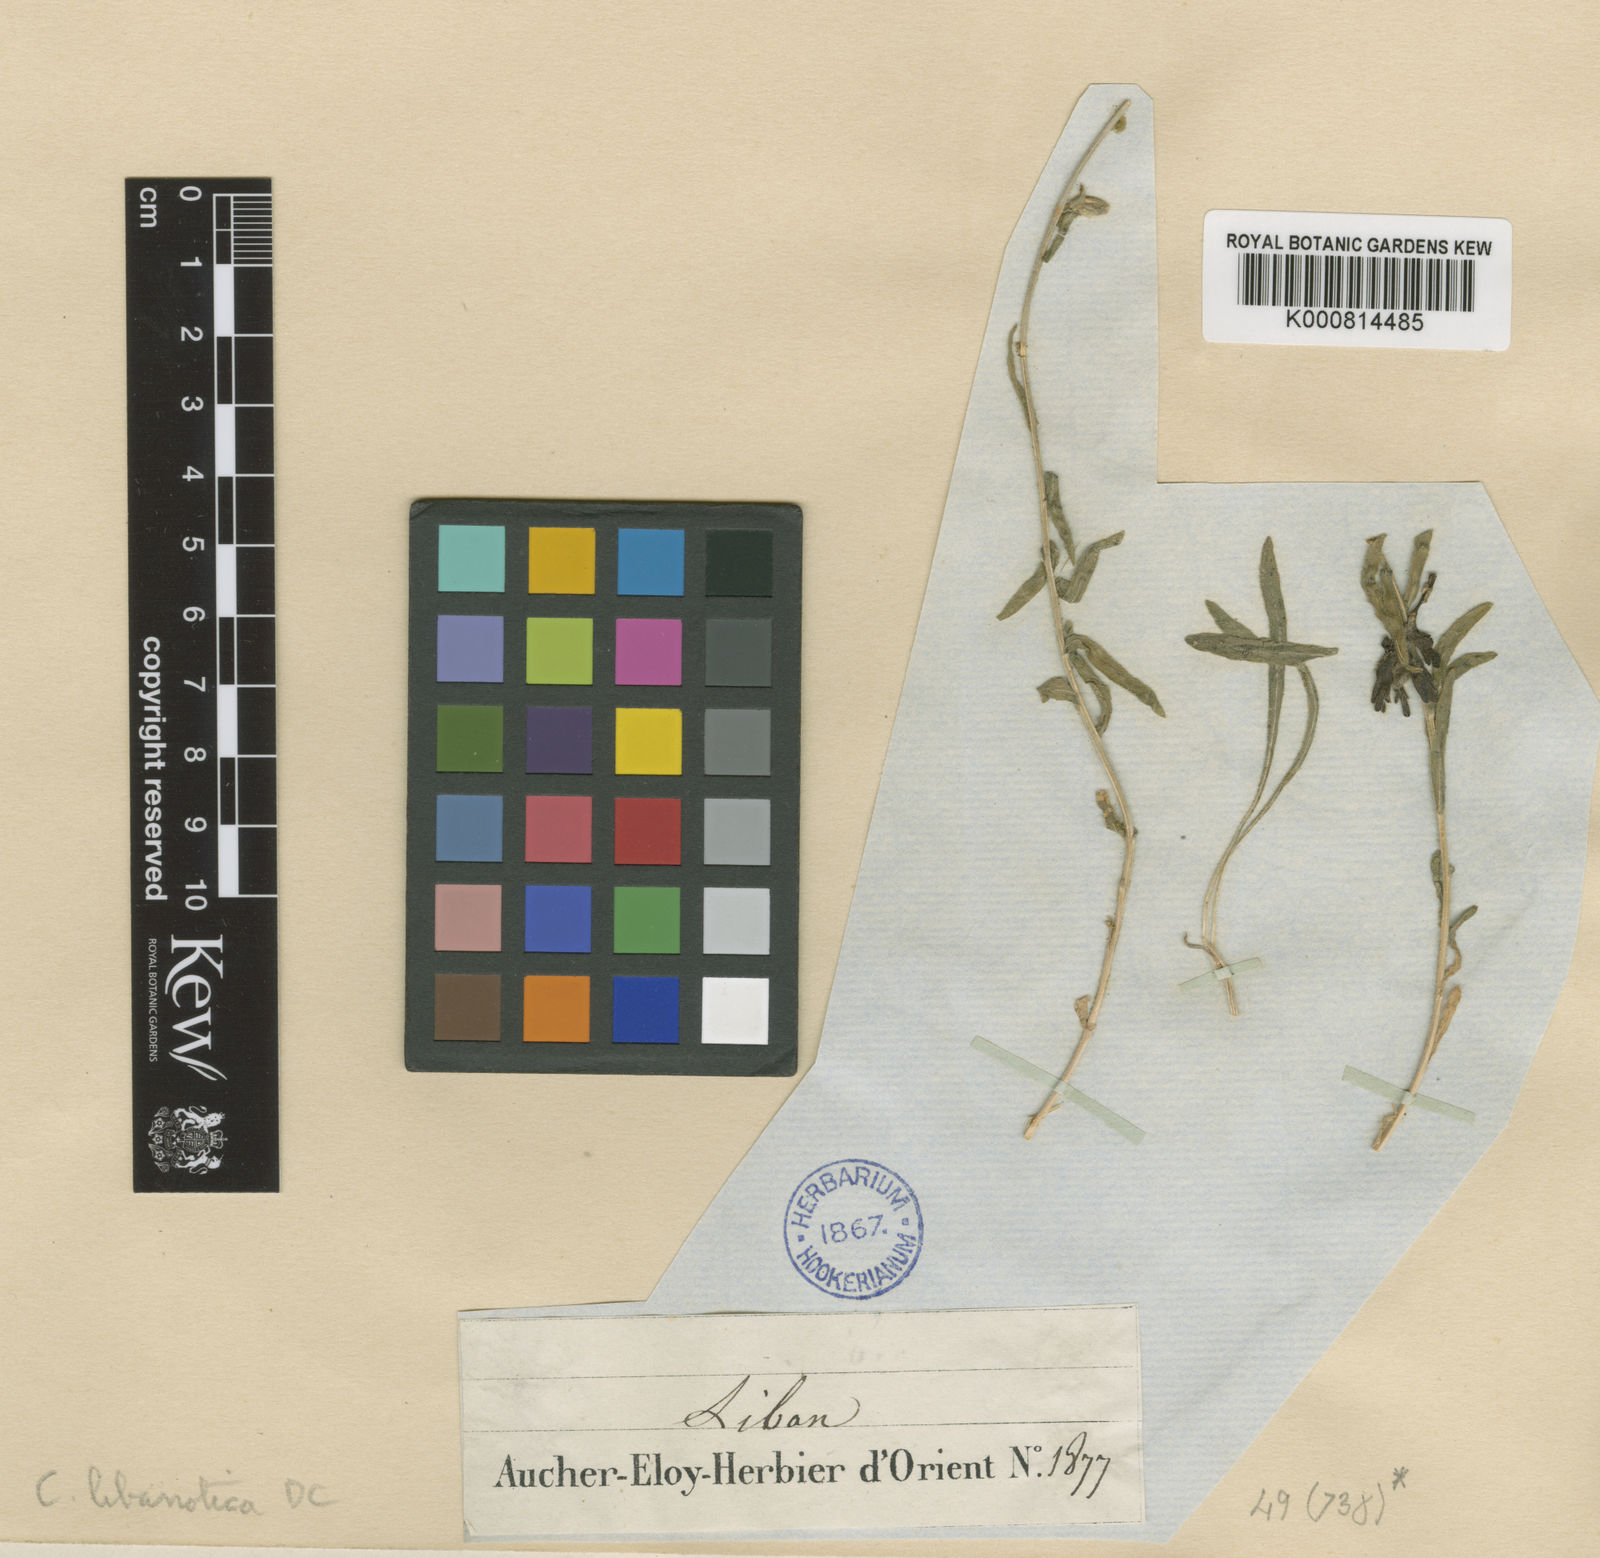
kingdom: Plantae
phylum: Tracheophyta
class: Magnoliopsida
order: Asterales
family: Campanulaceae
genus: Campanula
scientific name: Campanula stricta
